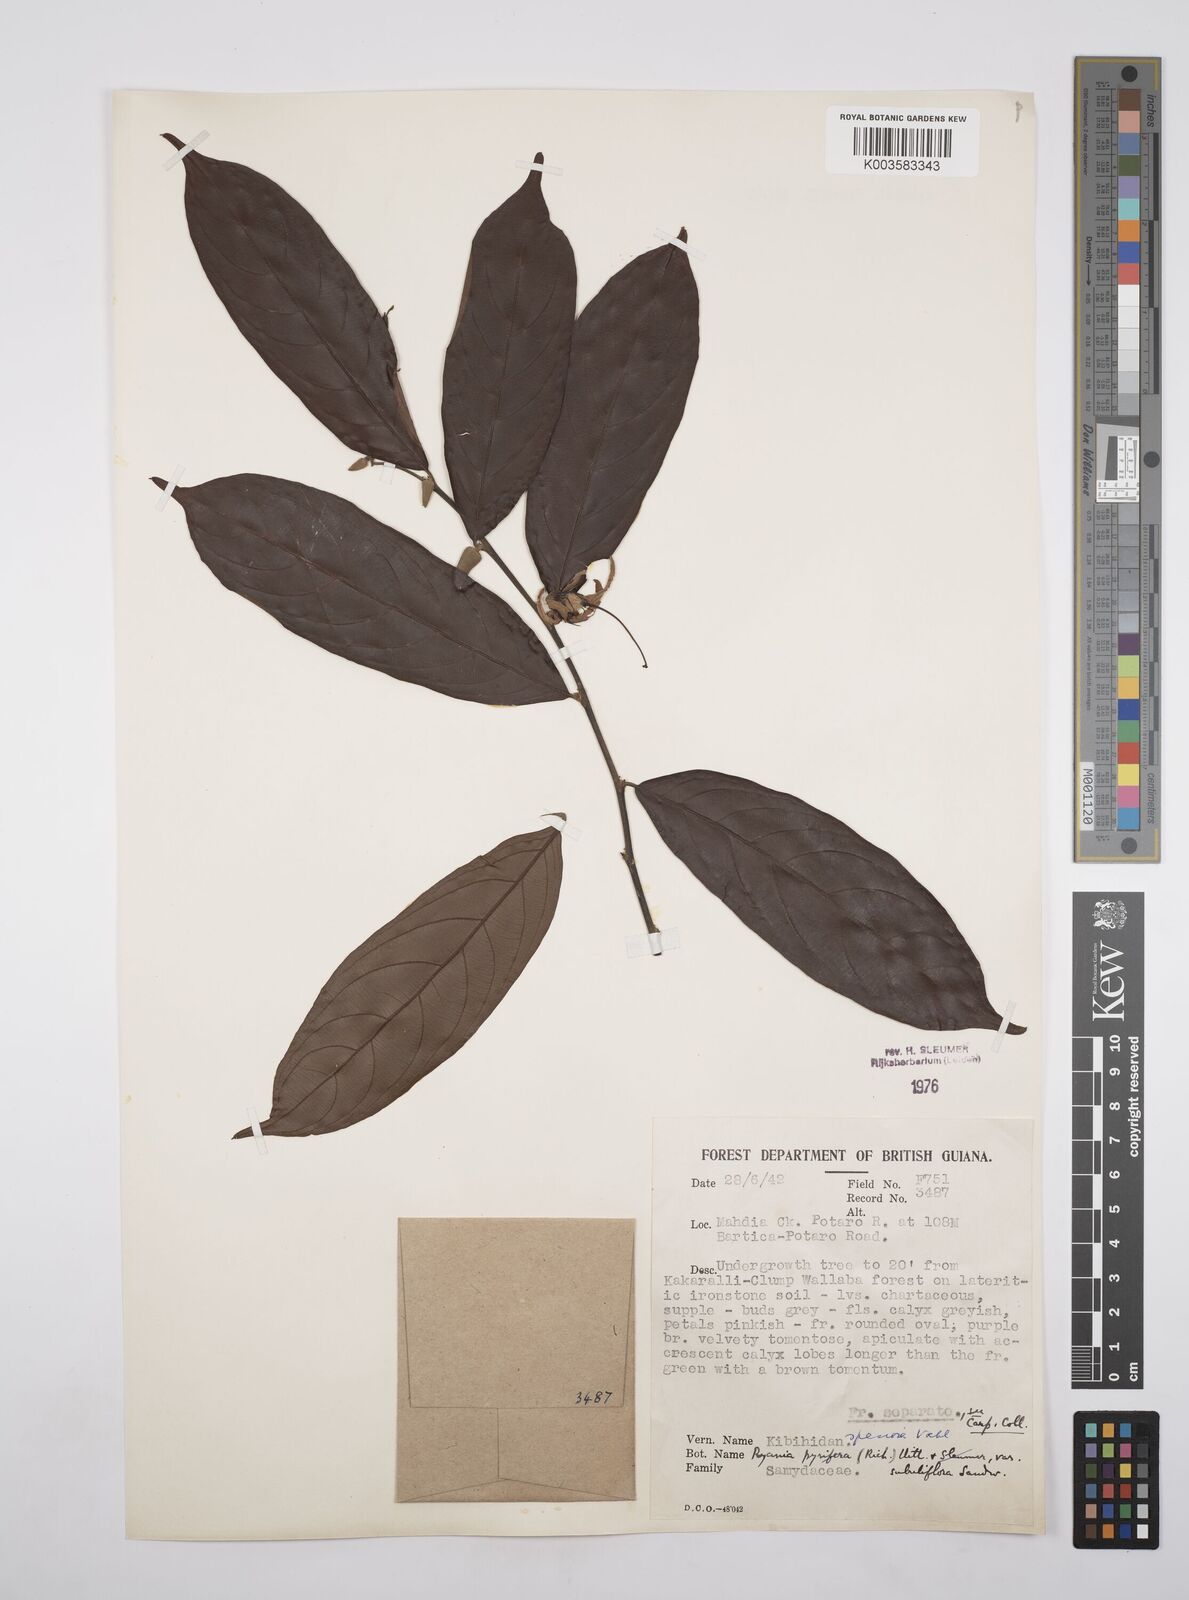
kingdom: Plantae
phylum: Tracheophyta
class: Magnoliopsida
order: Malpighiales
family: Salicaceae
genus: Ryania
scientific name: Ryania speciosa
